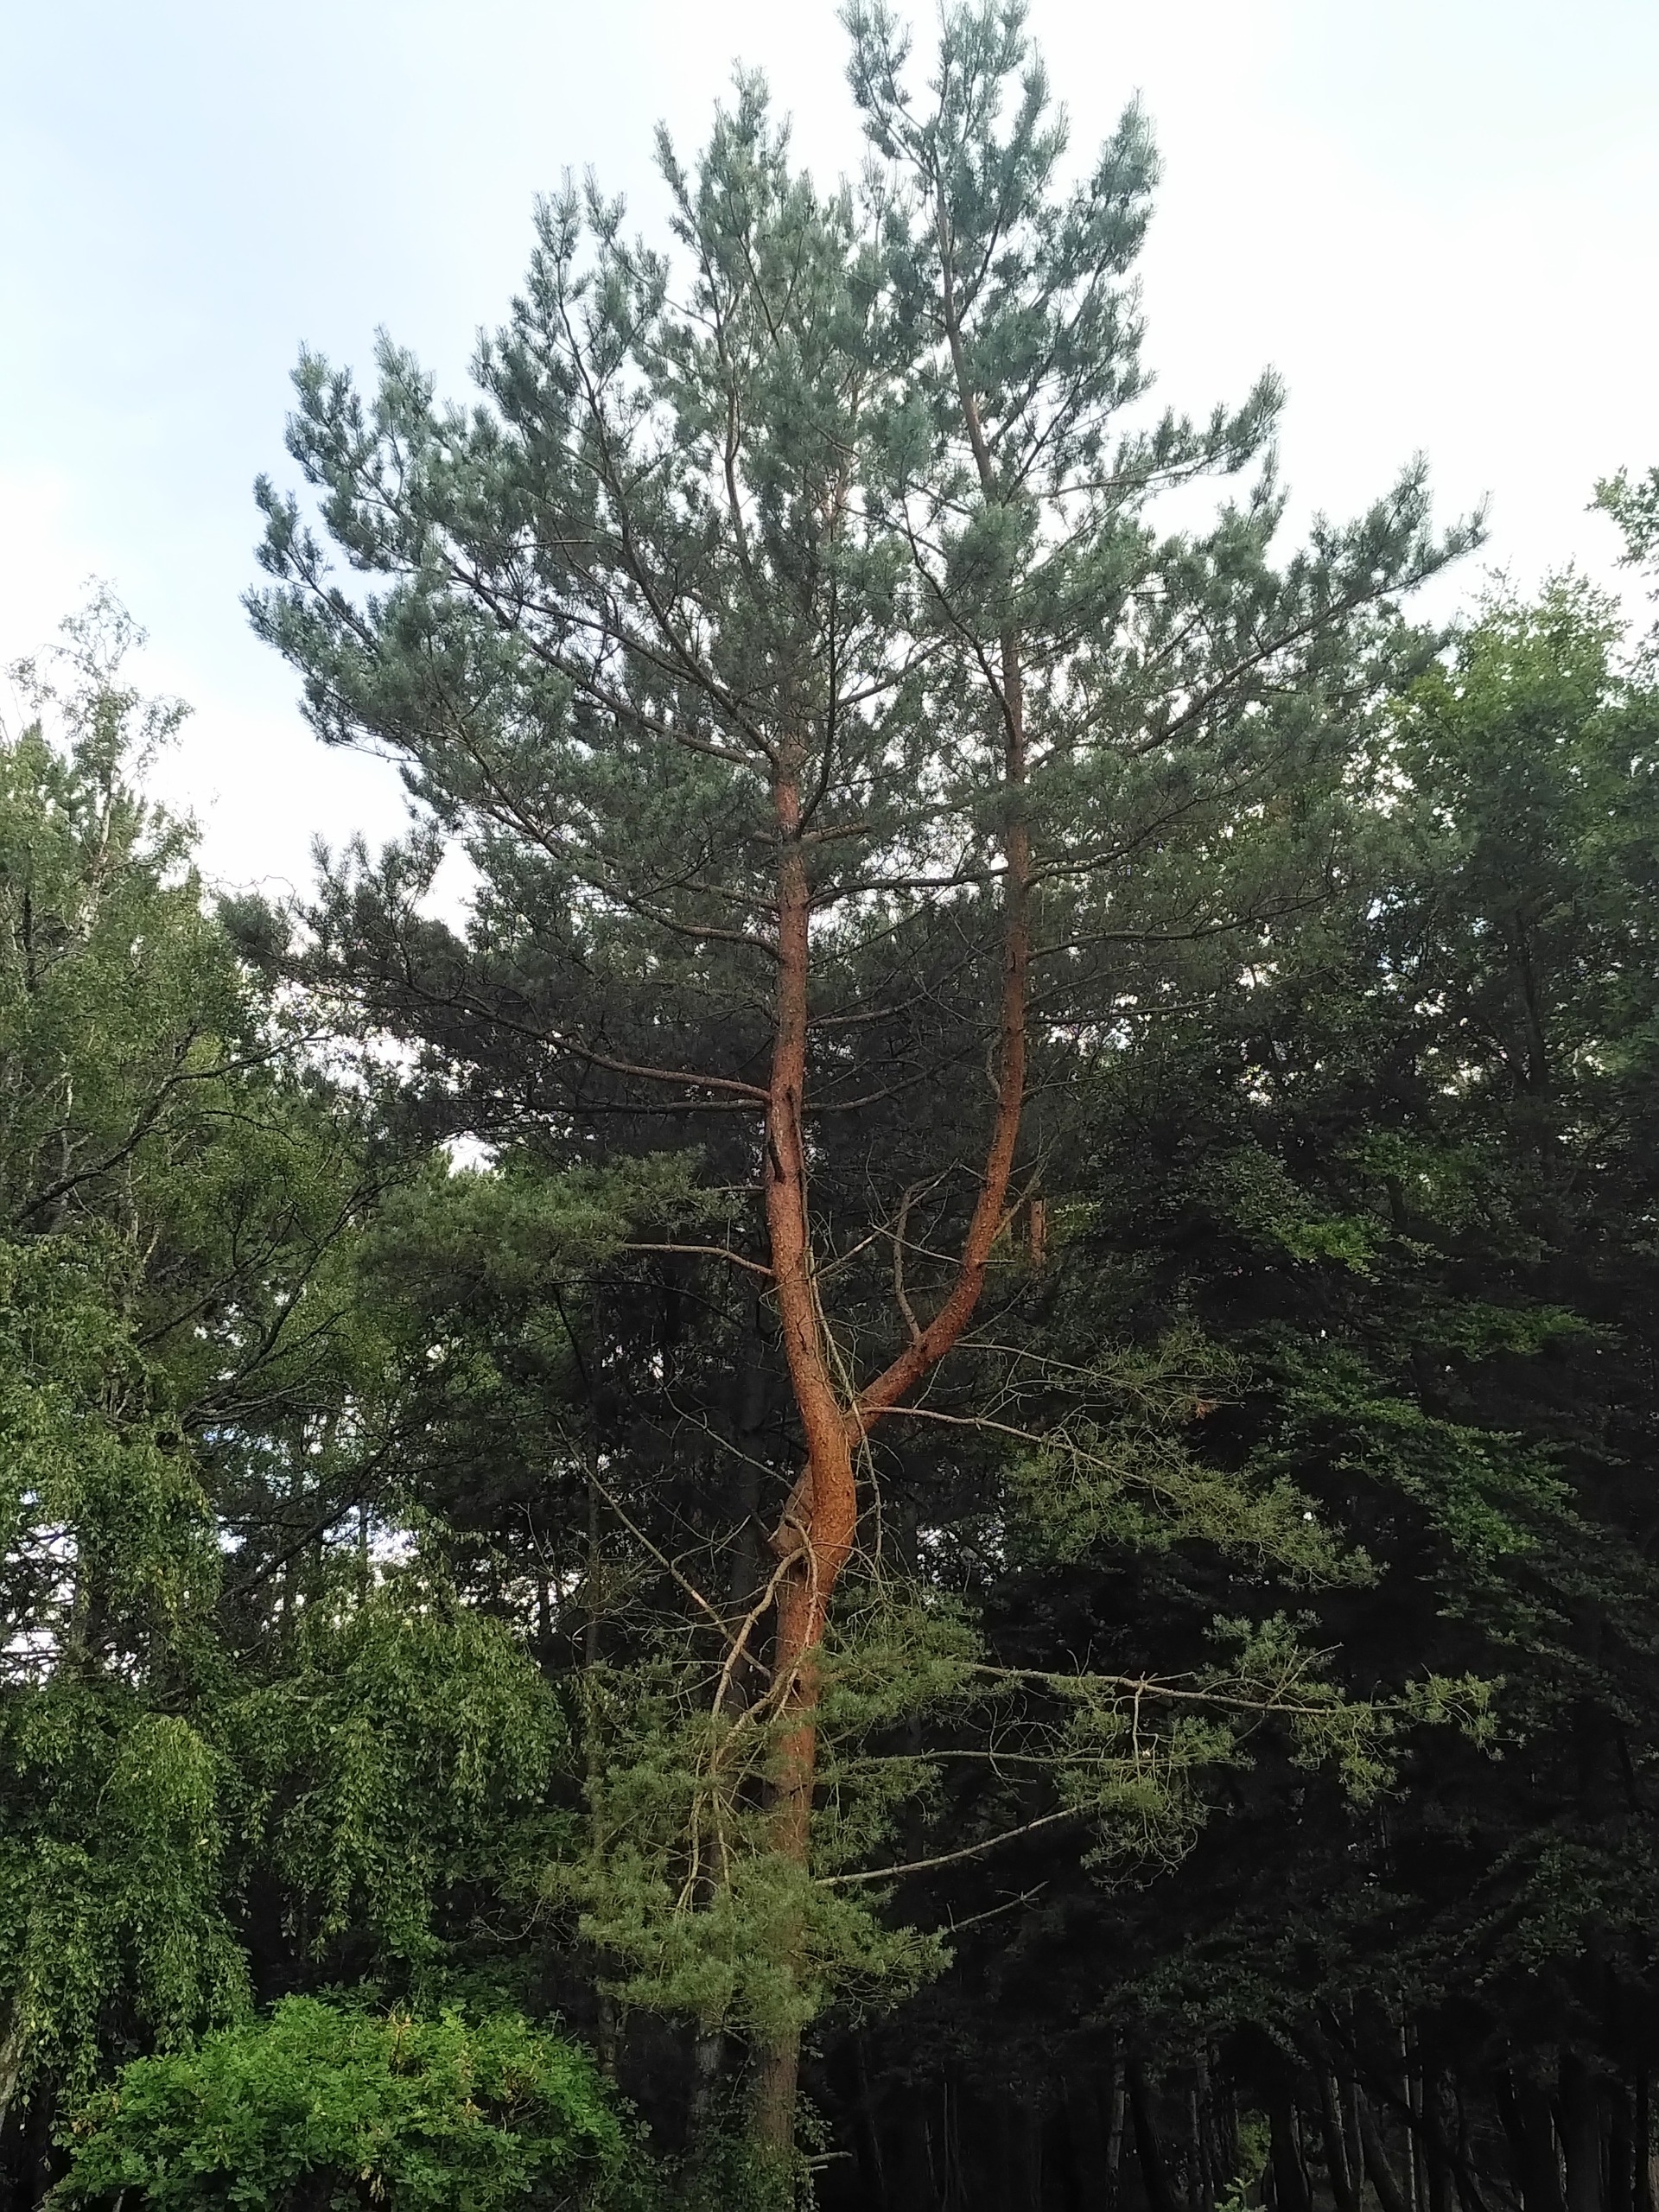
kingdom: Plantae
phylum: Tracheophyta
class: Pinopsida
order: Pinales
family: Pinaceae
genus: Pinus
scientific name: Pinus sylvestris
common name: Skov-fyr
